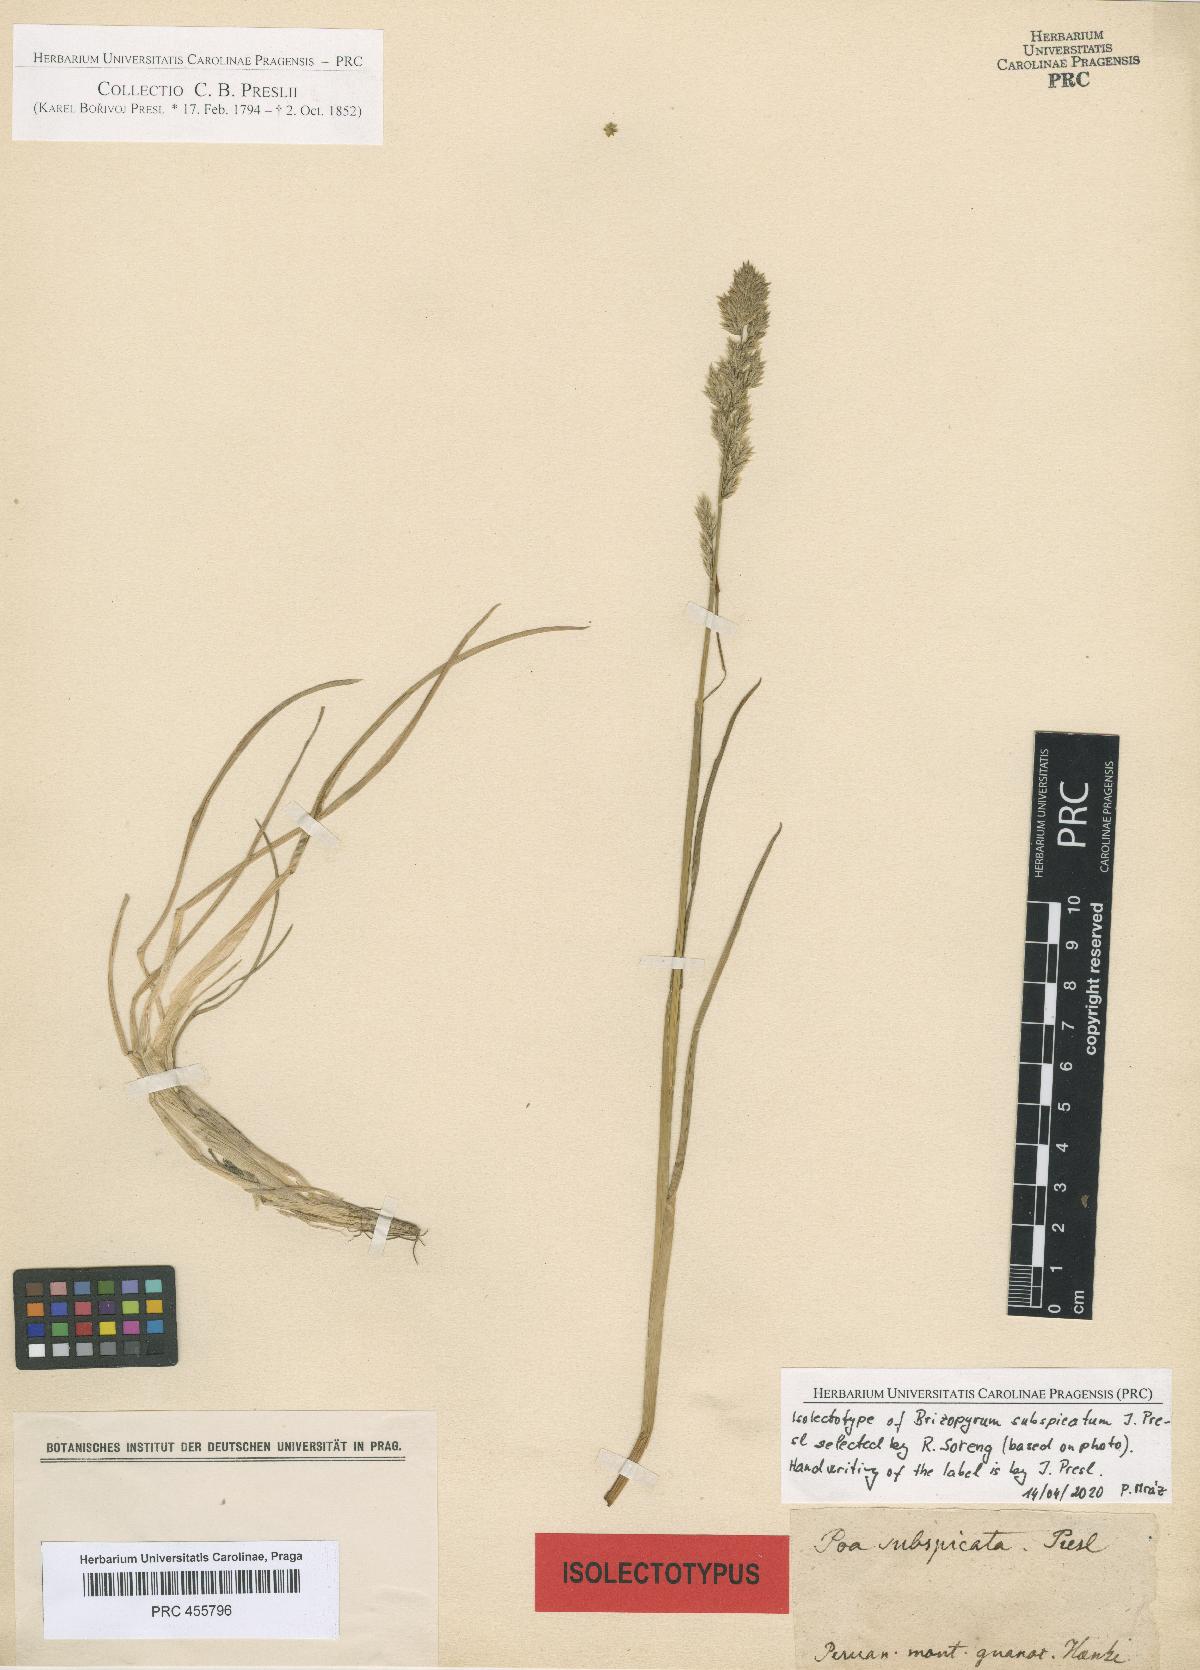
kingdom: Plantae
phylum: Tracheophyta
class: Liliopsida
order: Poales
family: Poaceae
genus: Poa
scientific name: Poa subspicata
